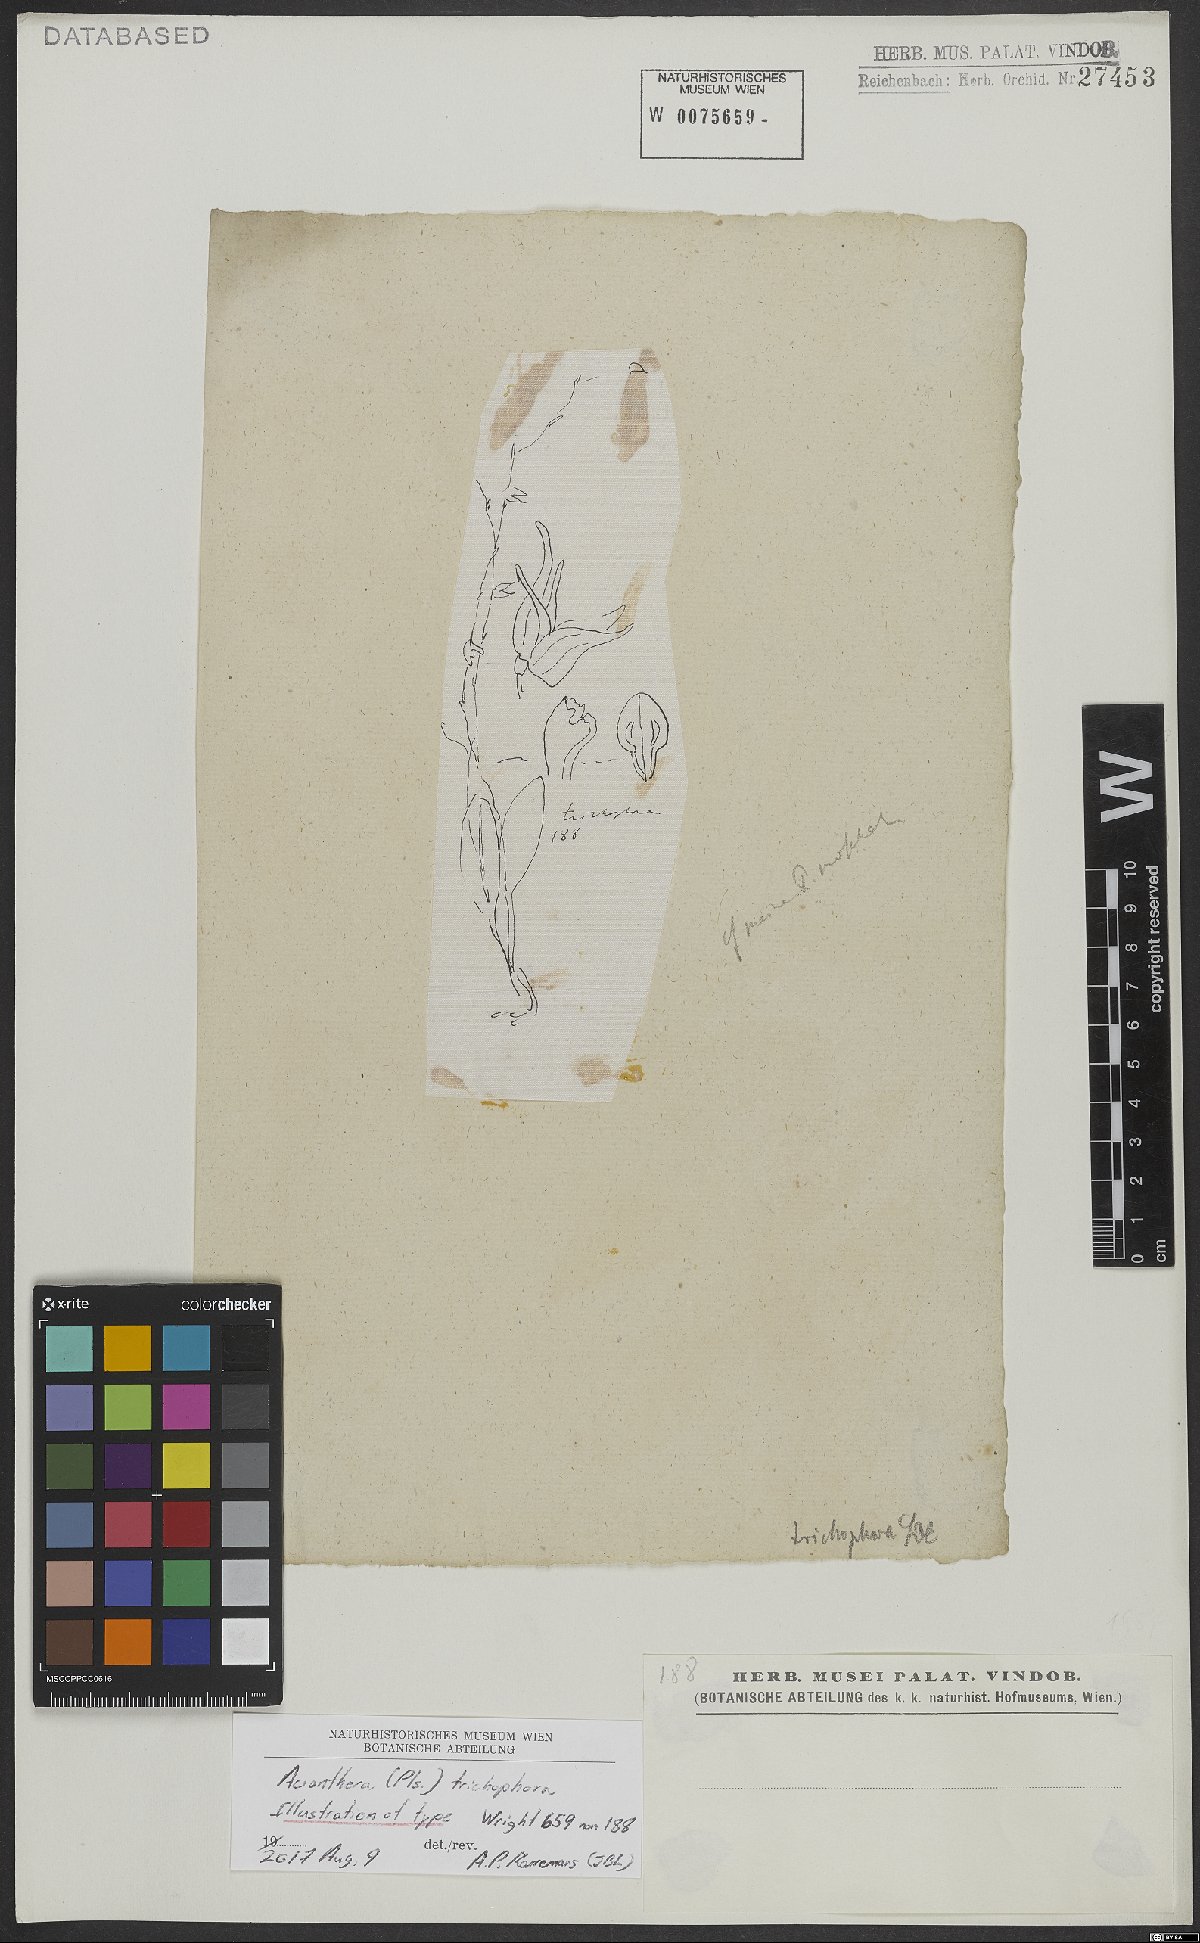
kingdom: Plantae
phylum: Tracheophyta
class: Liliopsida
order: Asparagales
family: Orchidaceae
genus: Acianthera
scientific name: Acianthera trichophora
